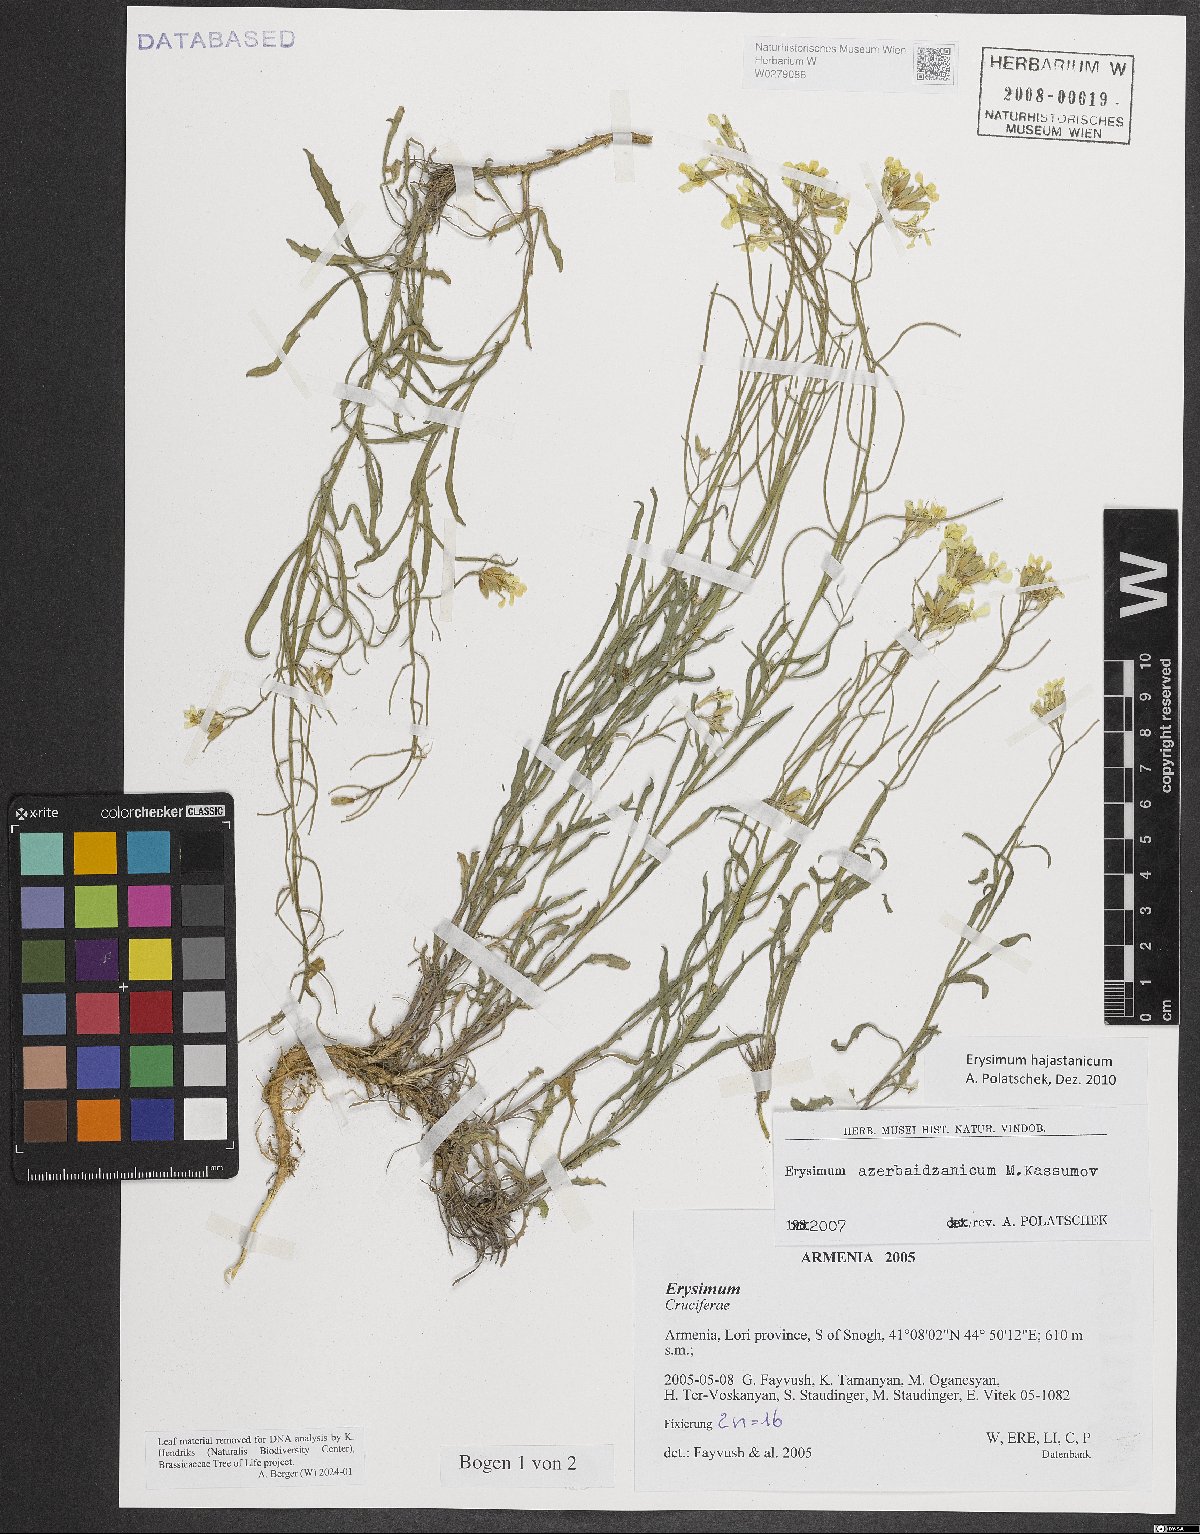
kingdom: Plantae
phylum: Tracheophyta
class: Magnoliopsida
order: Brassicales
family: Brassicaceae
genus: Erysimum
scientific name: Erysimum hajastanicum
